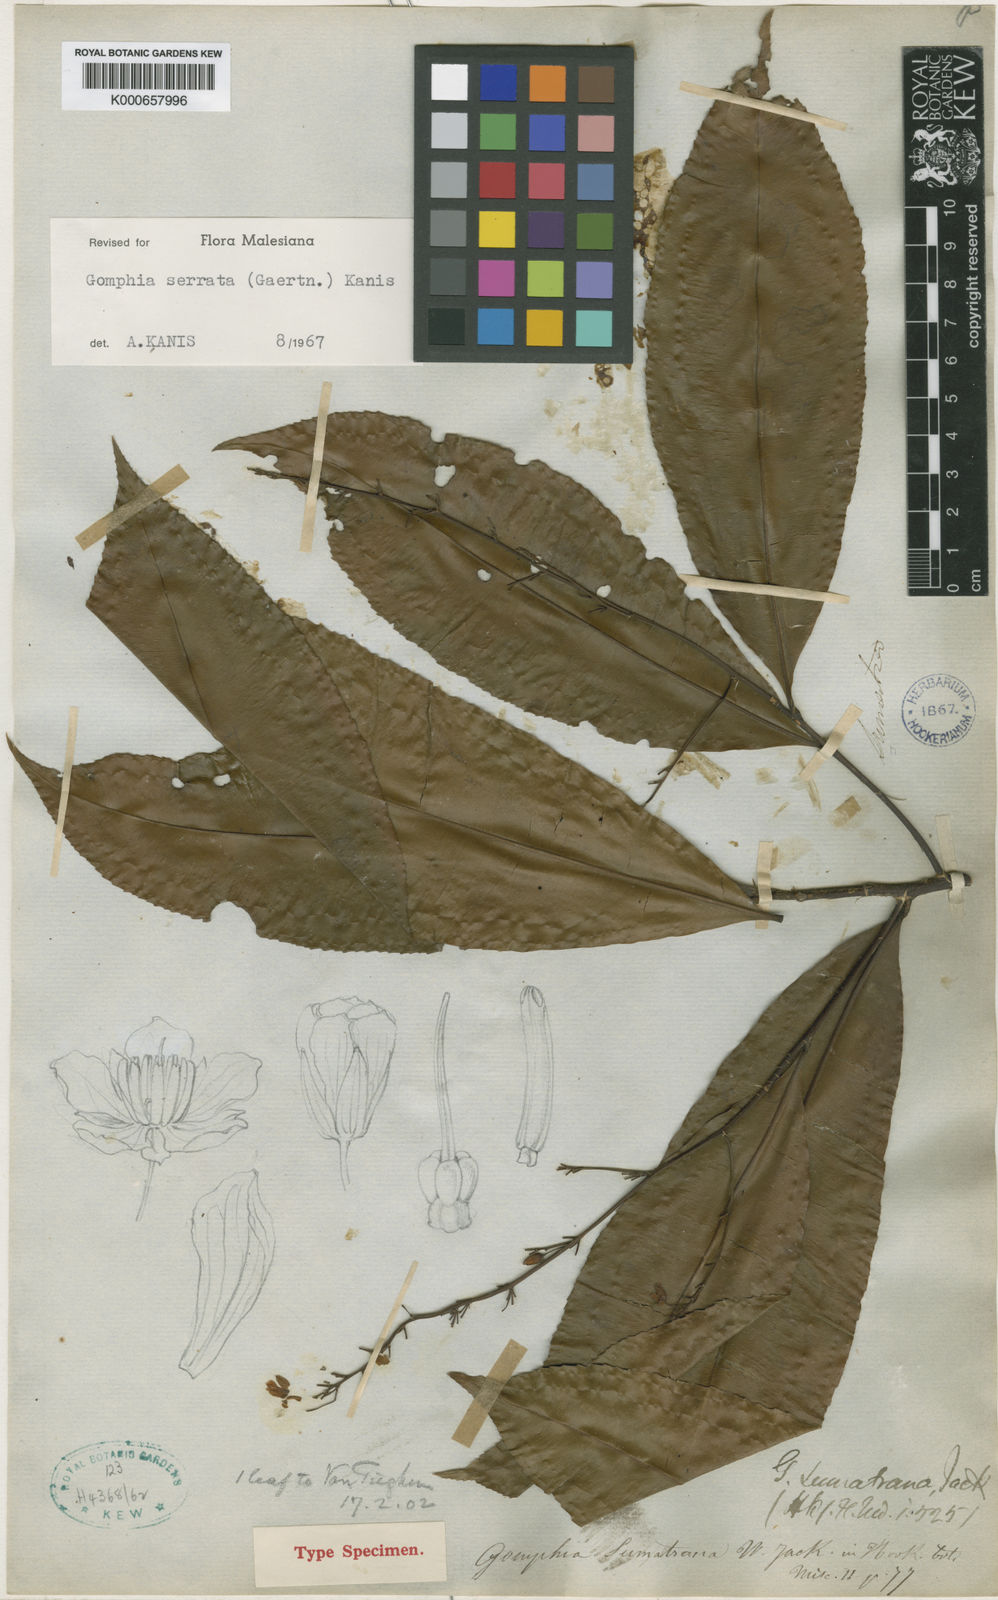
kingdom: Plantae
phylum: Tracheophyta
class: Magnoliopsida
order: Malpighiales
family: Ochnaceae
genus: Gomphia
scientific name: Gomphia serrata
